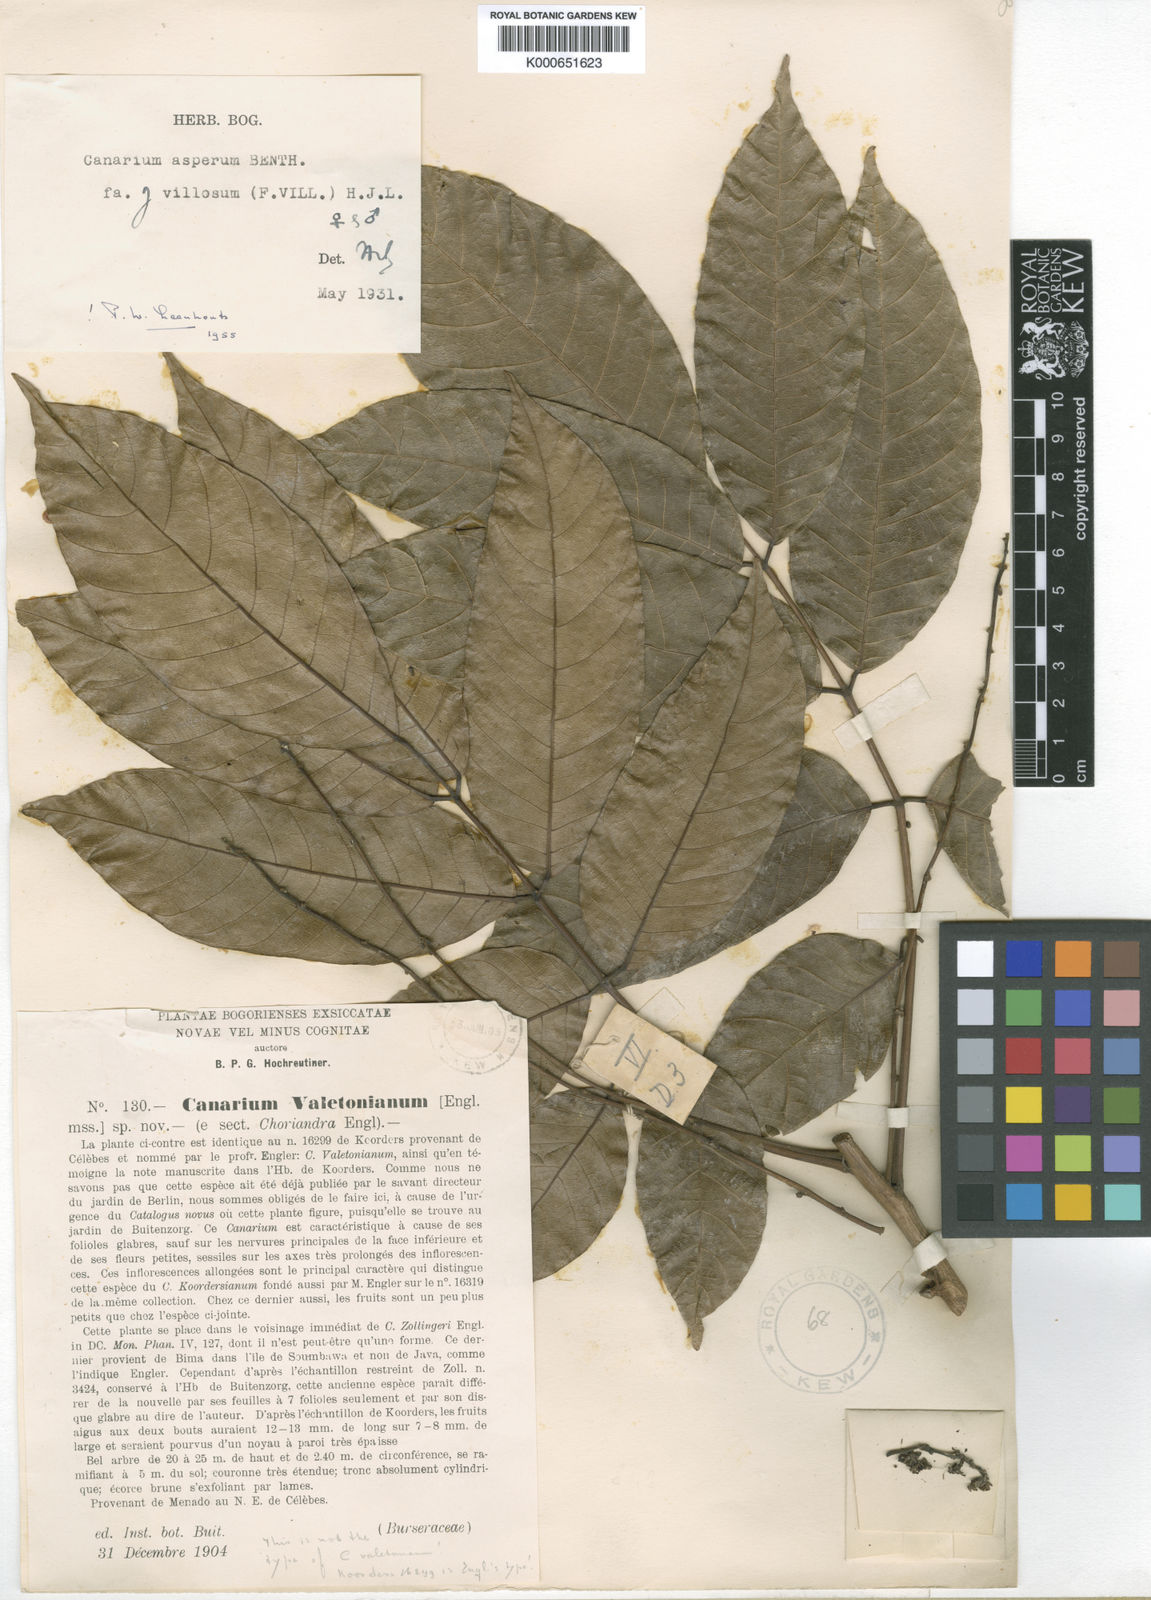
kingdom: Plantae
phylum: Tracheophyta
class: Magnoliopsida
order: Sapindales
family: Burseraceae
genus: Canarium
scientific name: Canarium asperum
